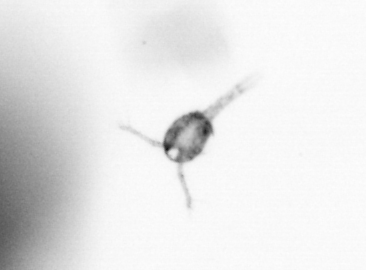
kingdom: Animalia
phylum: Arthropoda
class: Copepoda
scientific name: Copepoda
